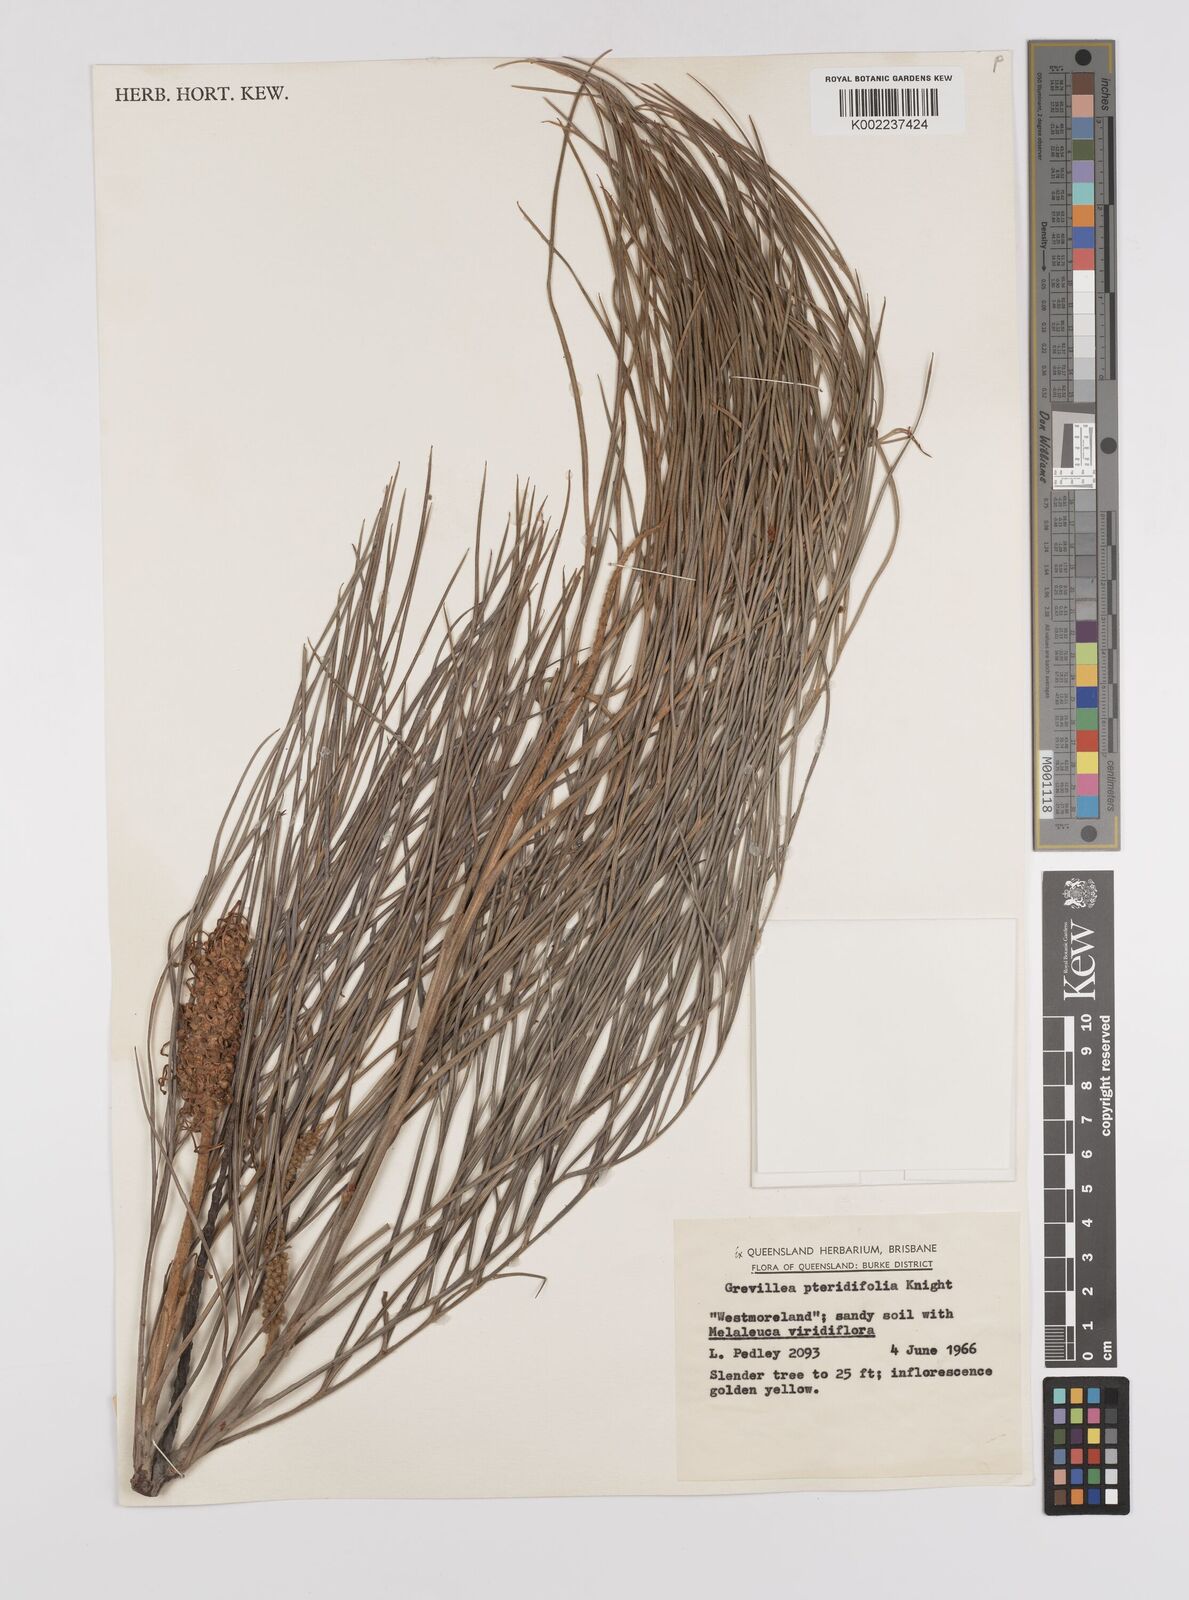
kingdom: Plantae
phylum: Tracheophyta
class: Magnoliopsida
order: Proteales
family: Proteaceae
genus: Grevillea
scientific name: Grevillea pteridifolia
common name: Golden grevillea
